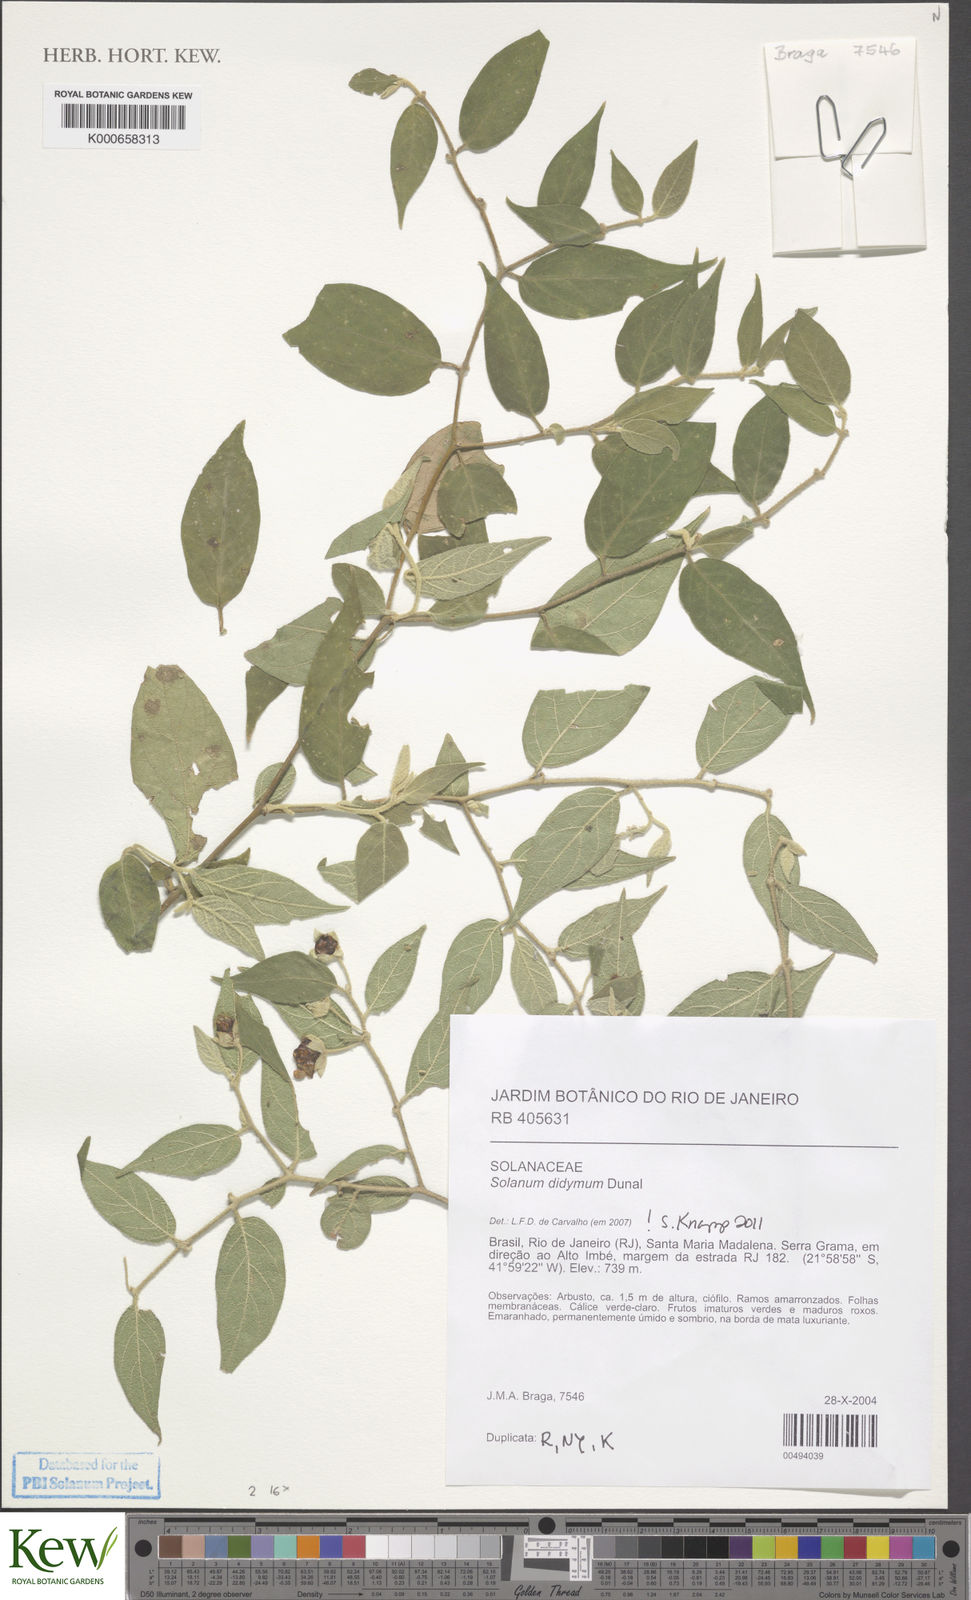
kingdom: Plantae
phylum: Tracheophyta
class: Magnoliopsida
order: Solanales
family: Solanaceae
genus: Solanum
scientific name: Solanum didymum
